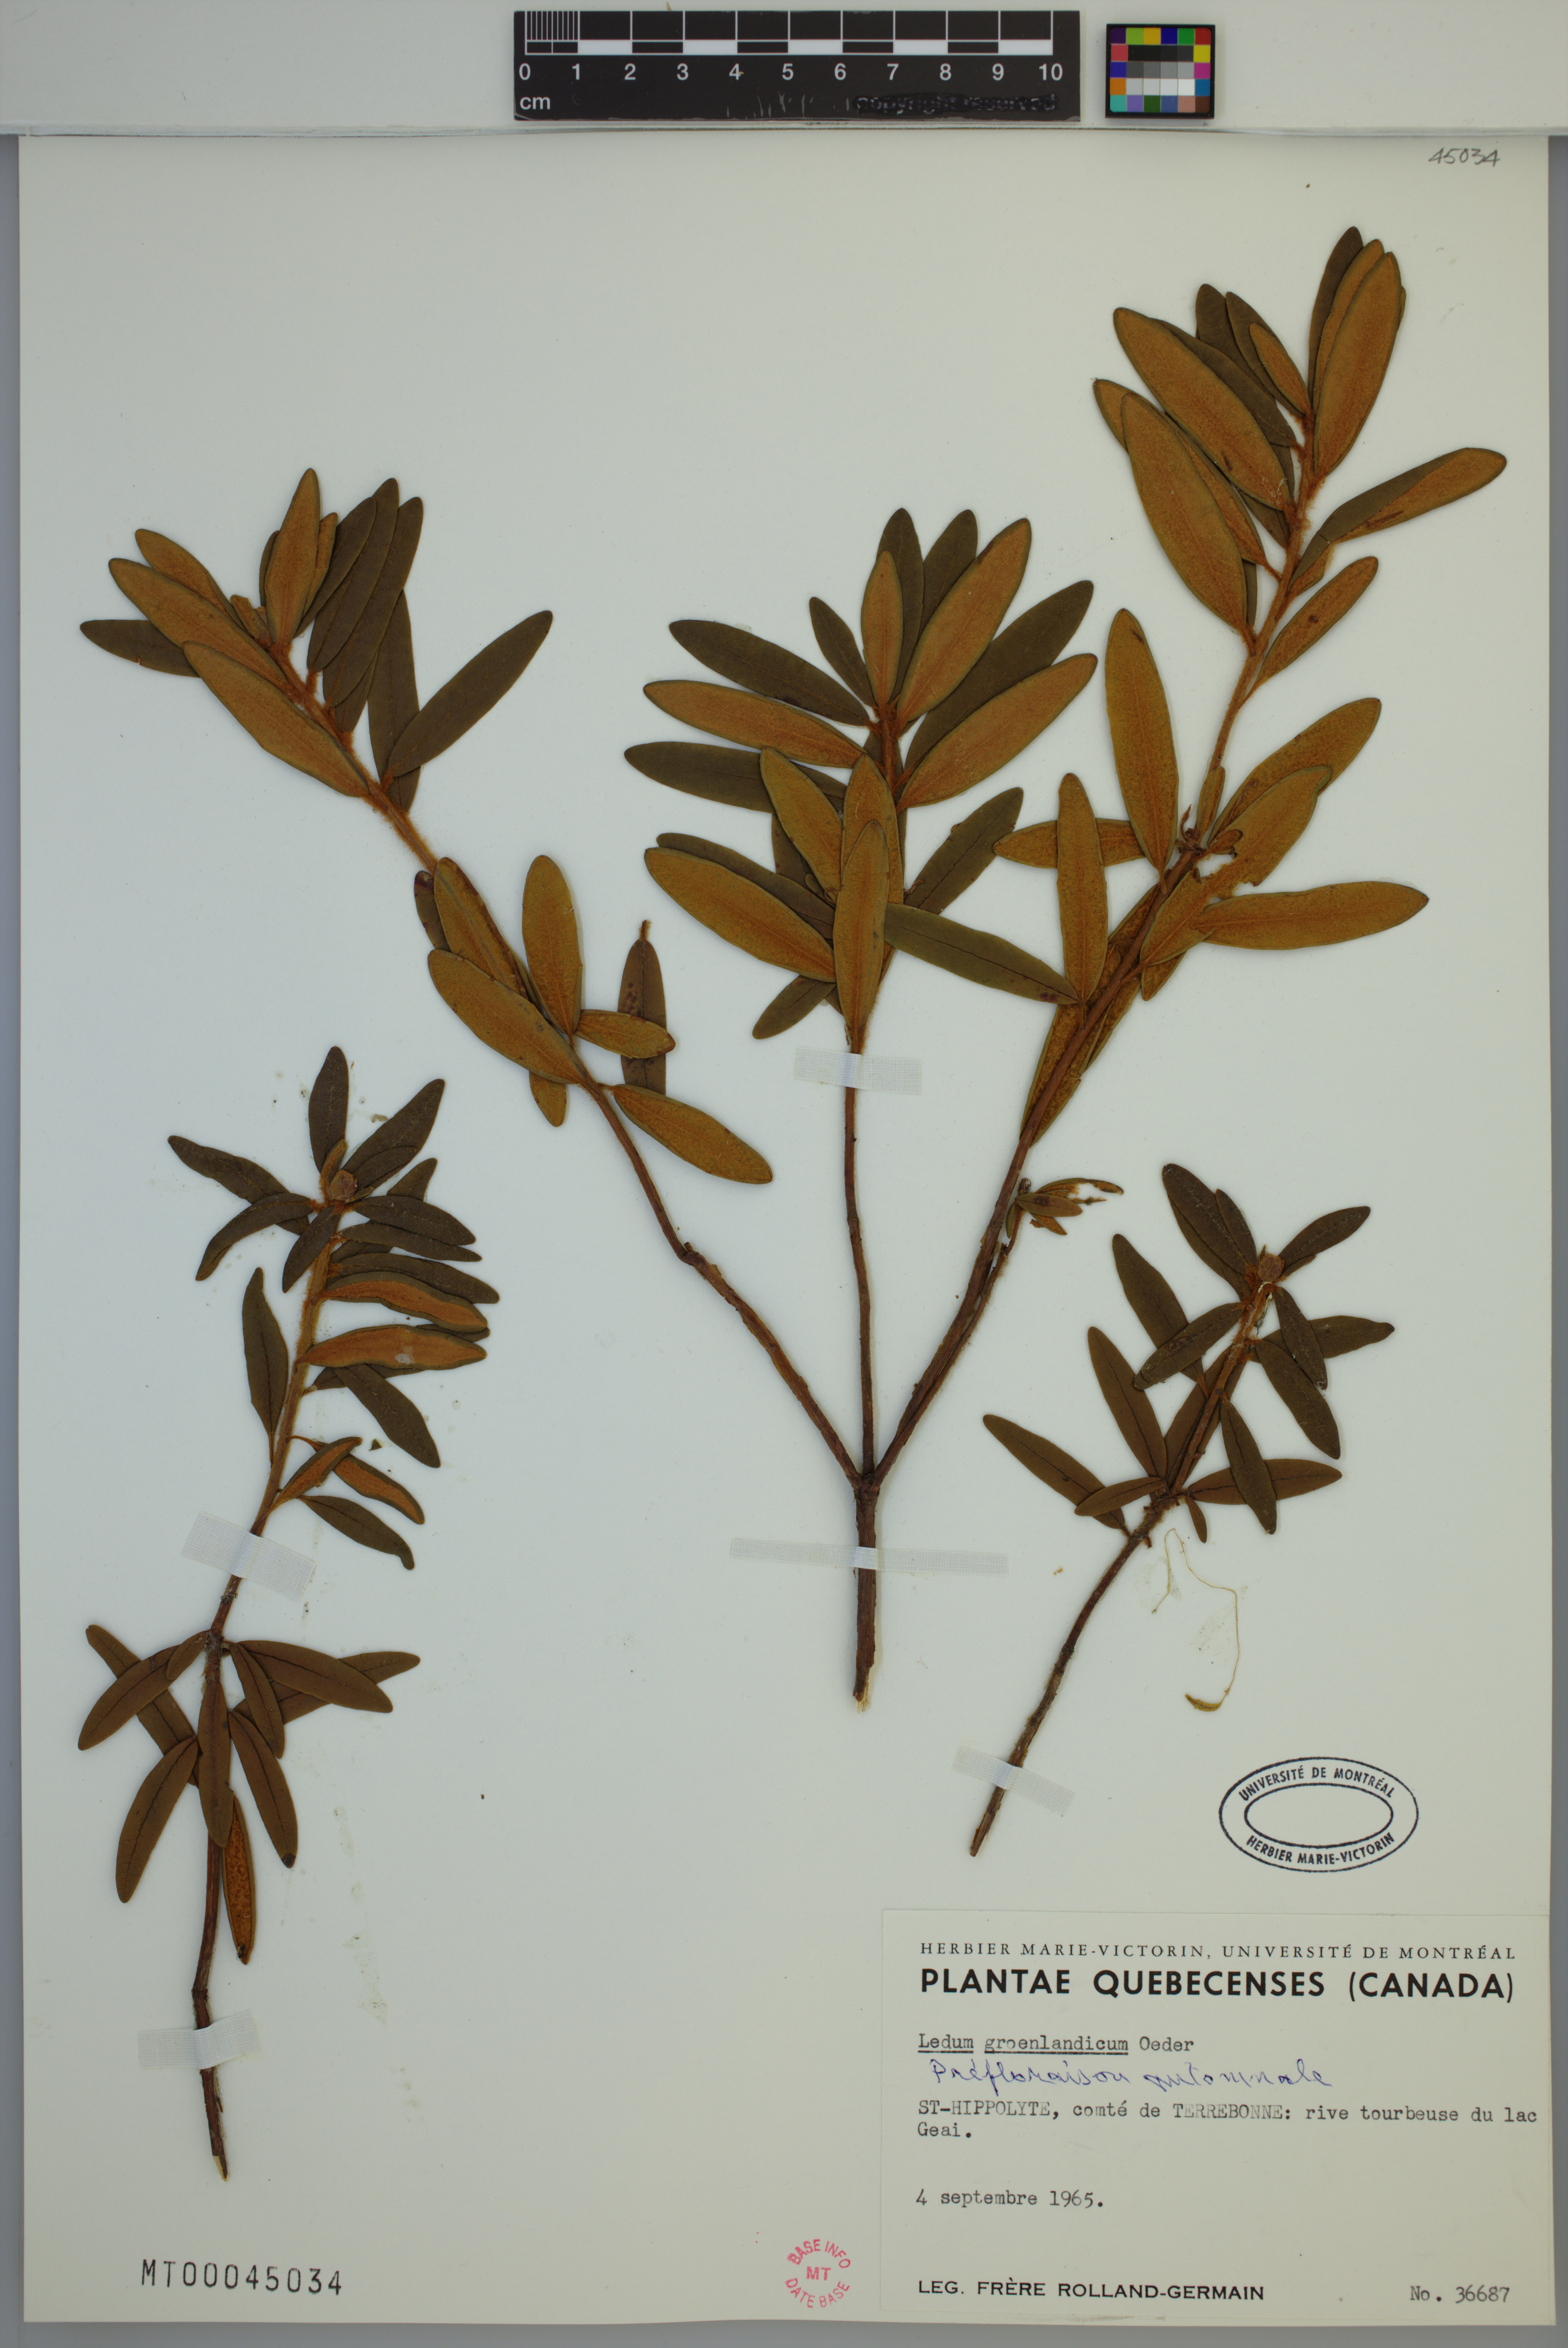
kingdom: Plantae
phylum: Tracheophyta
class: Magnoliopsida
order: Ericales
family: Ericaceae
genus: Rhododendron
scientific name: Rhododendron groenlandicum
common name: Bog labrador tea
